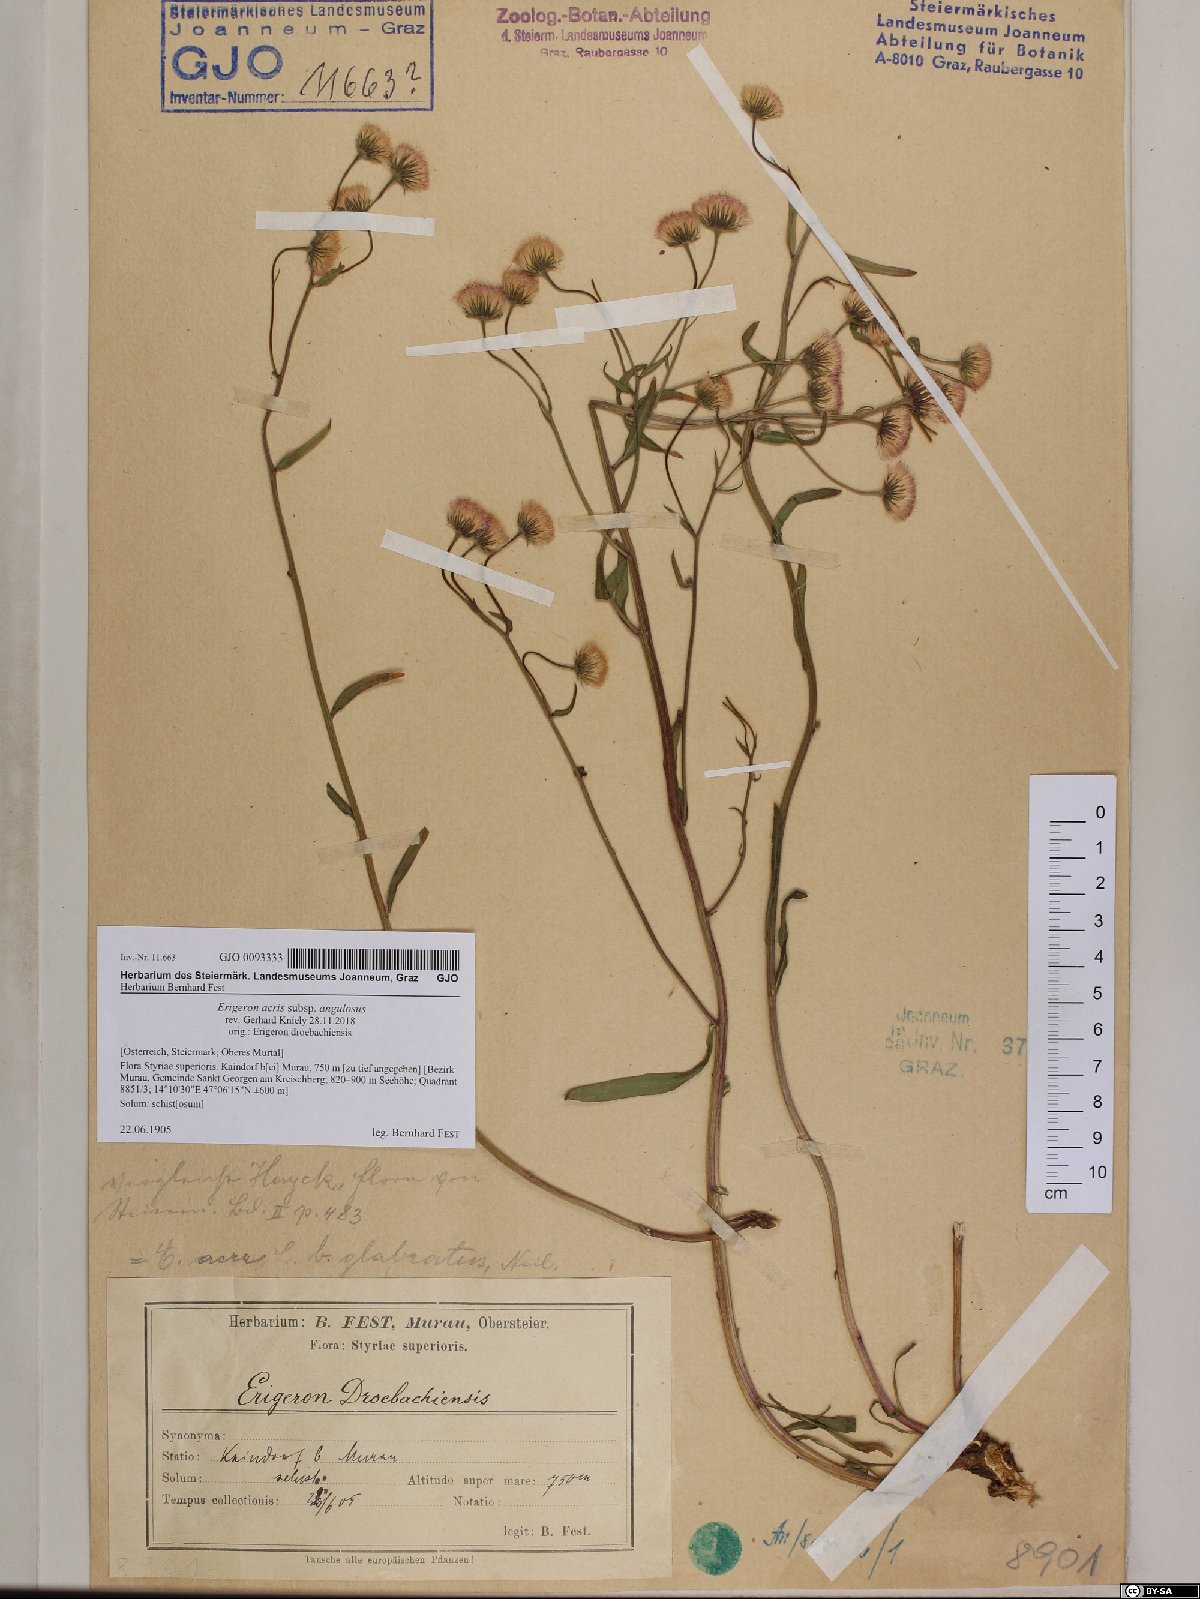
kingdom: Plantae
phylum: Tracheophyta
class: Magnoliopsida
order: Asterales
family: Asteraceae
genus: Erigeron
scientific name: Erigeron angulosus
